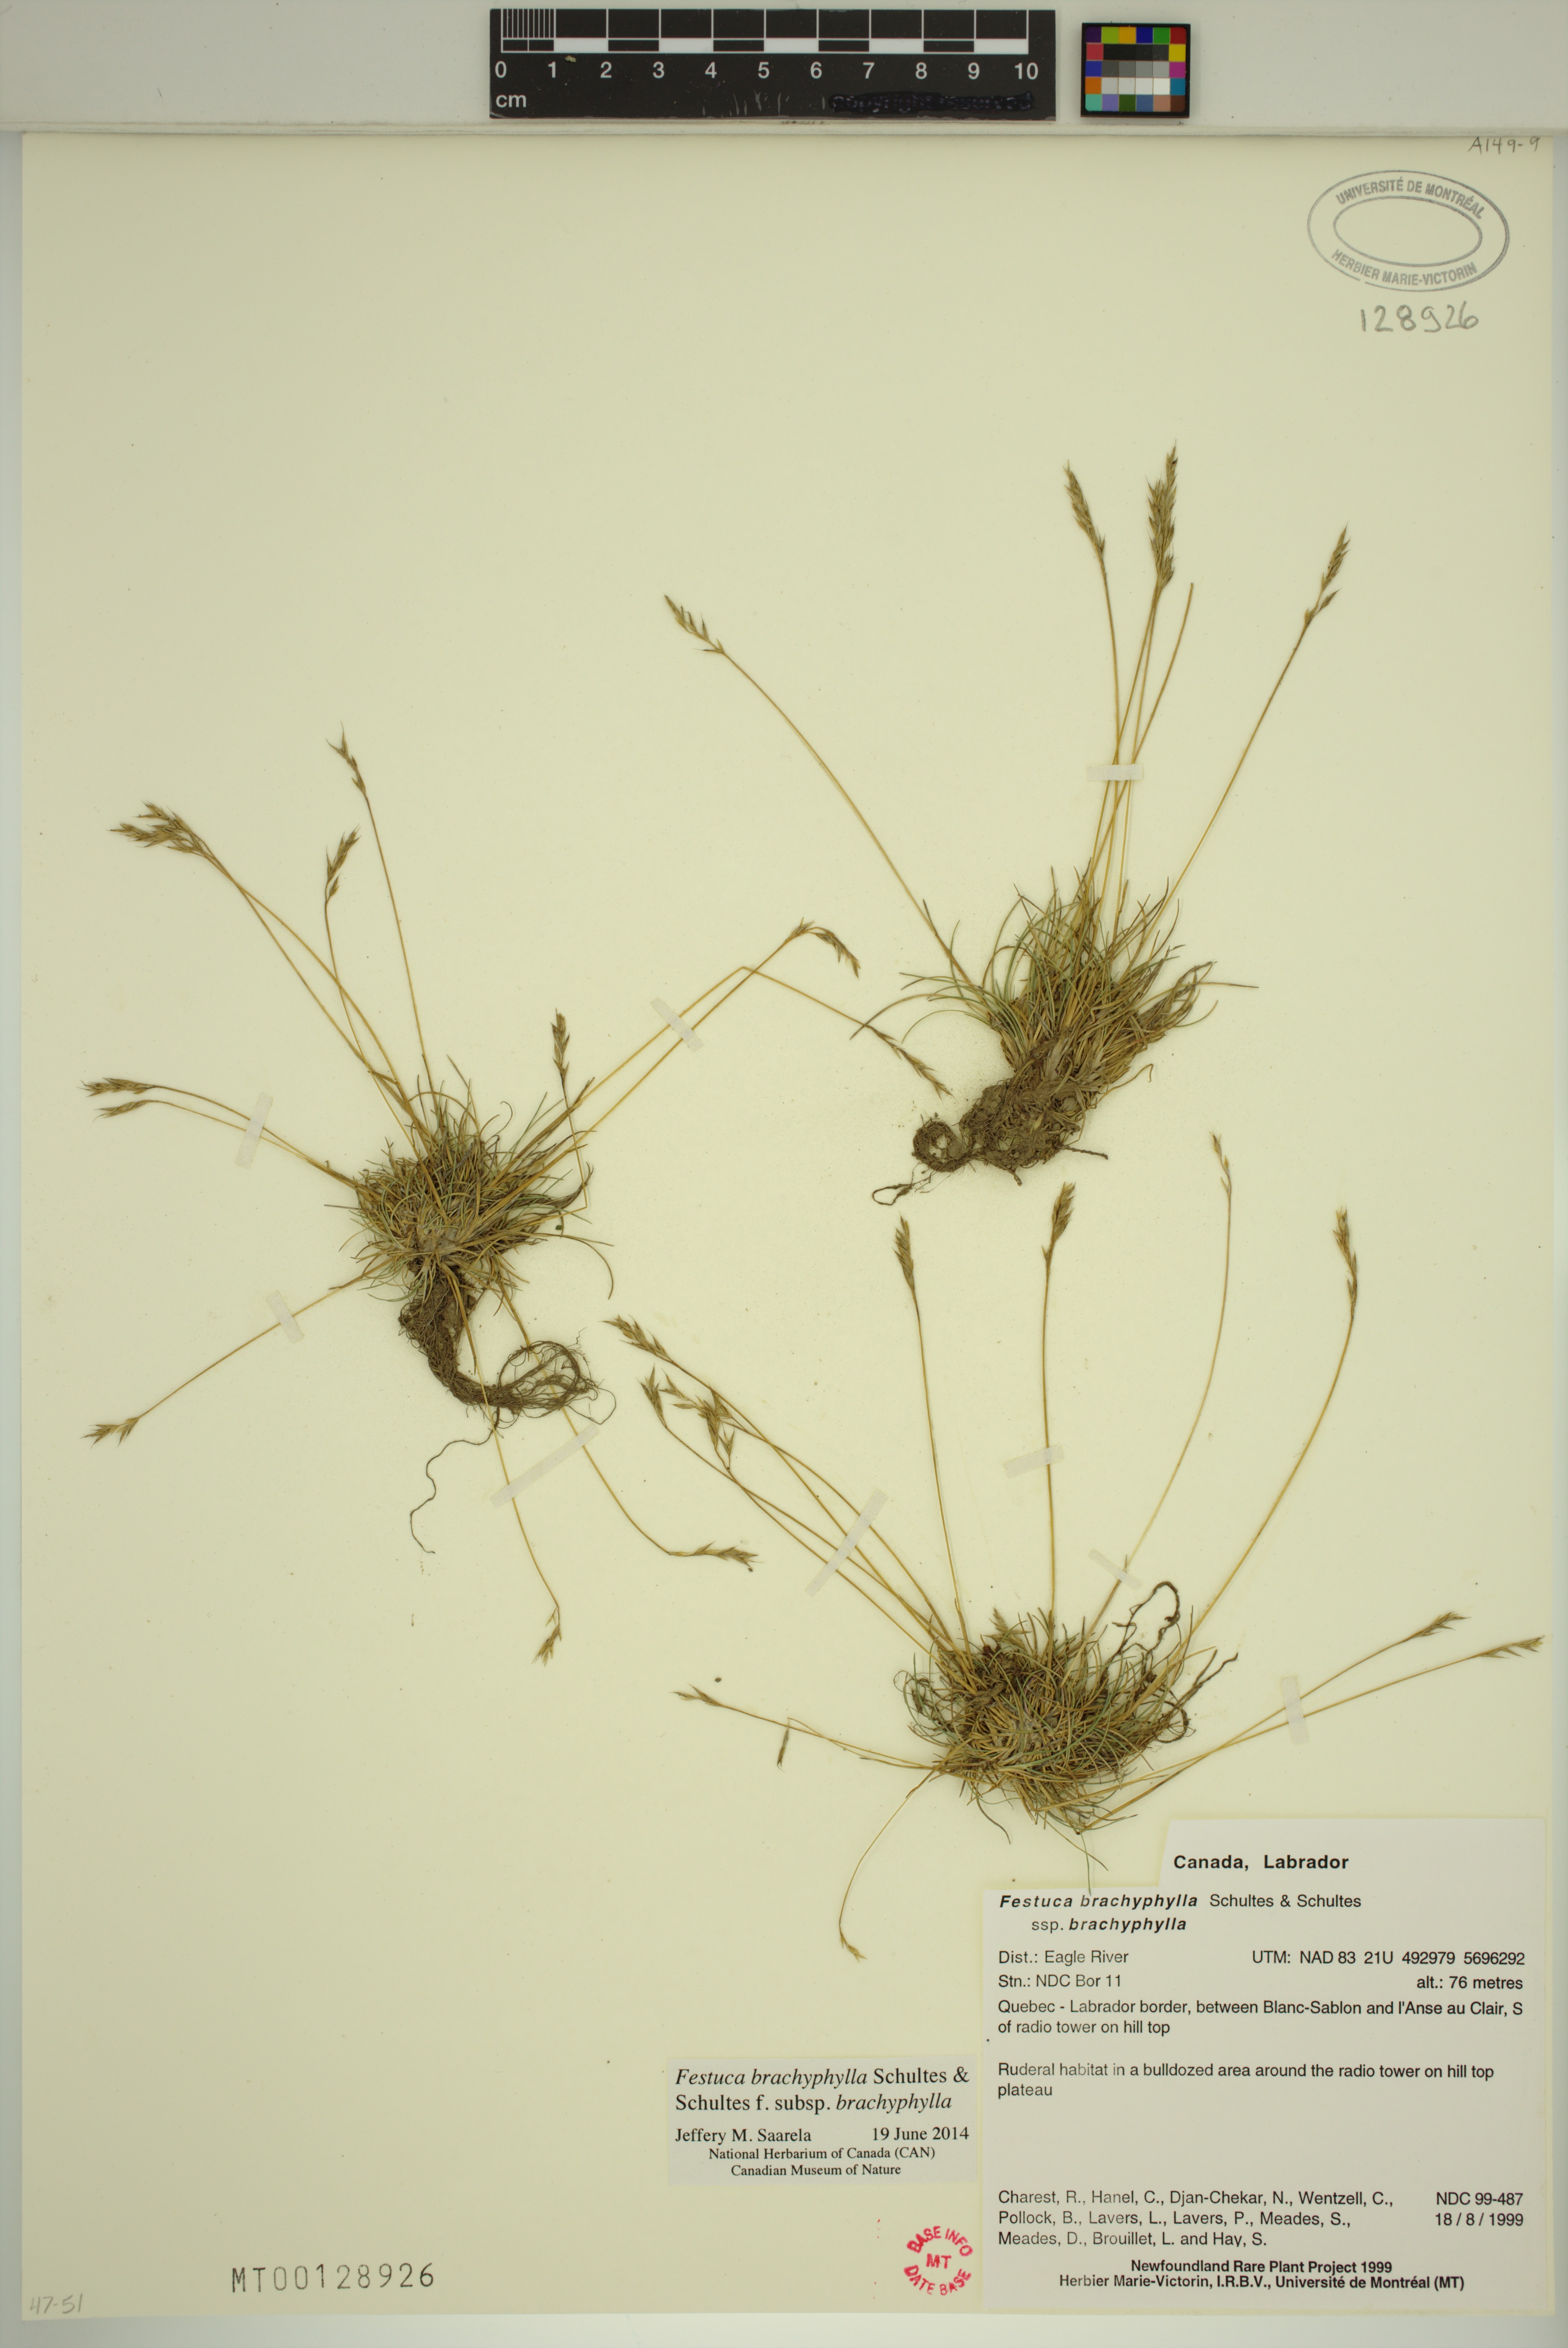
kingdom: Plantae
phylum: Tracheophyta
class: Liliopsida
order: Poales
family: Poaceae
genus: Festuca
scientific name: Festuca brachyphylla
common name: Alpine fescue
